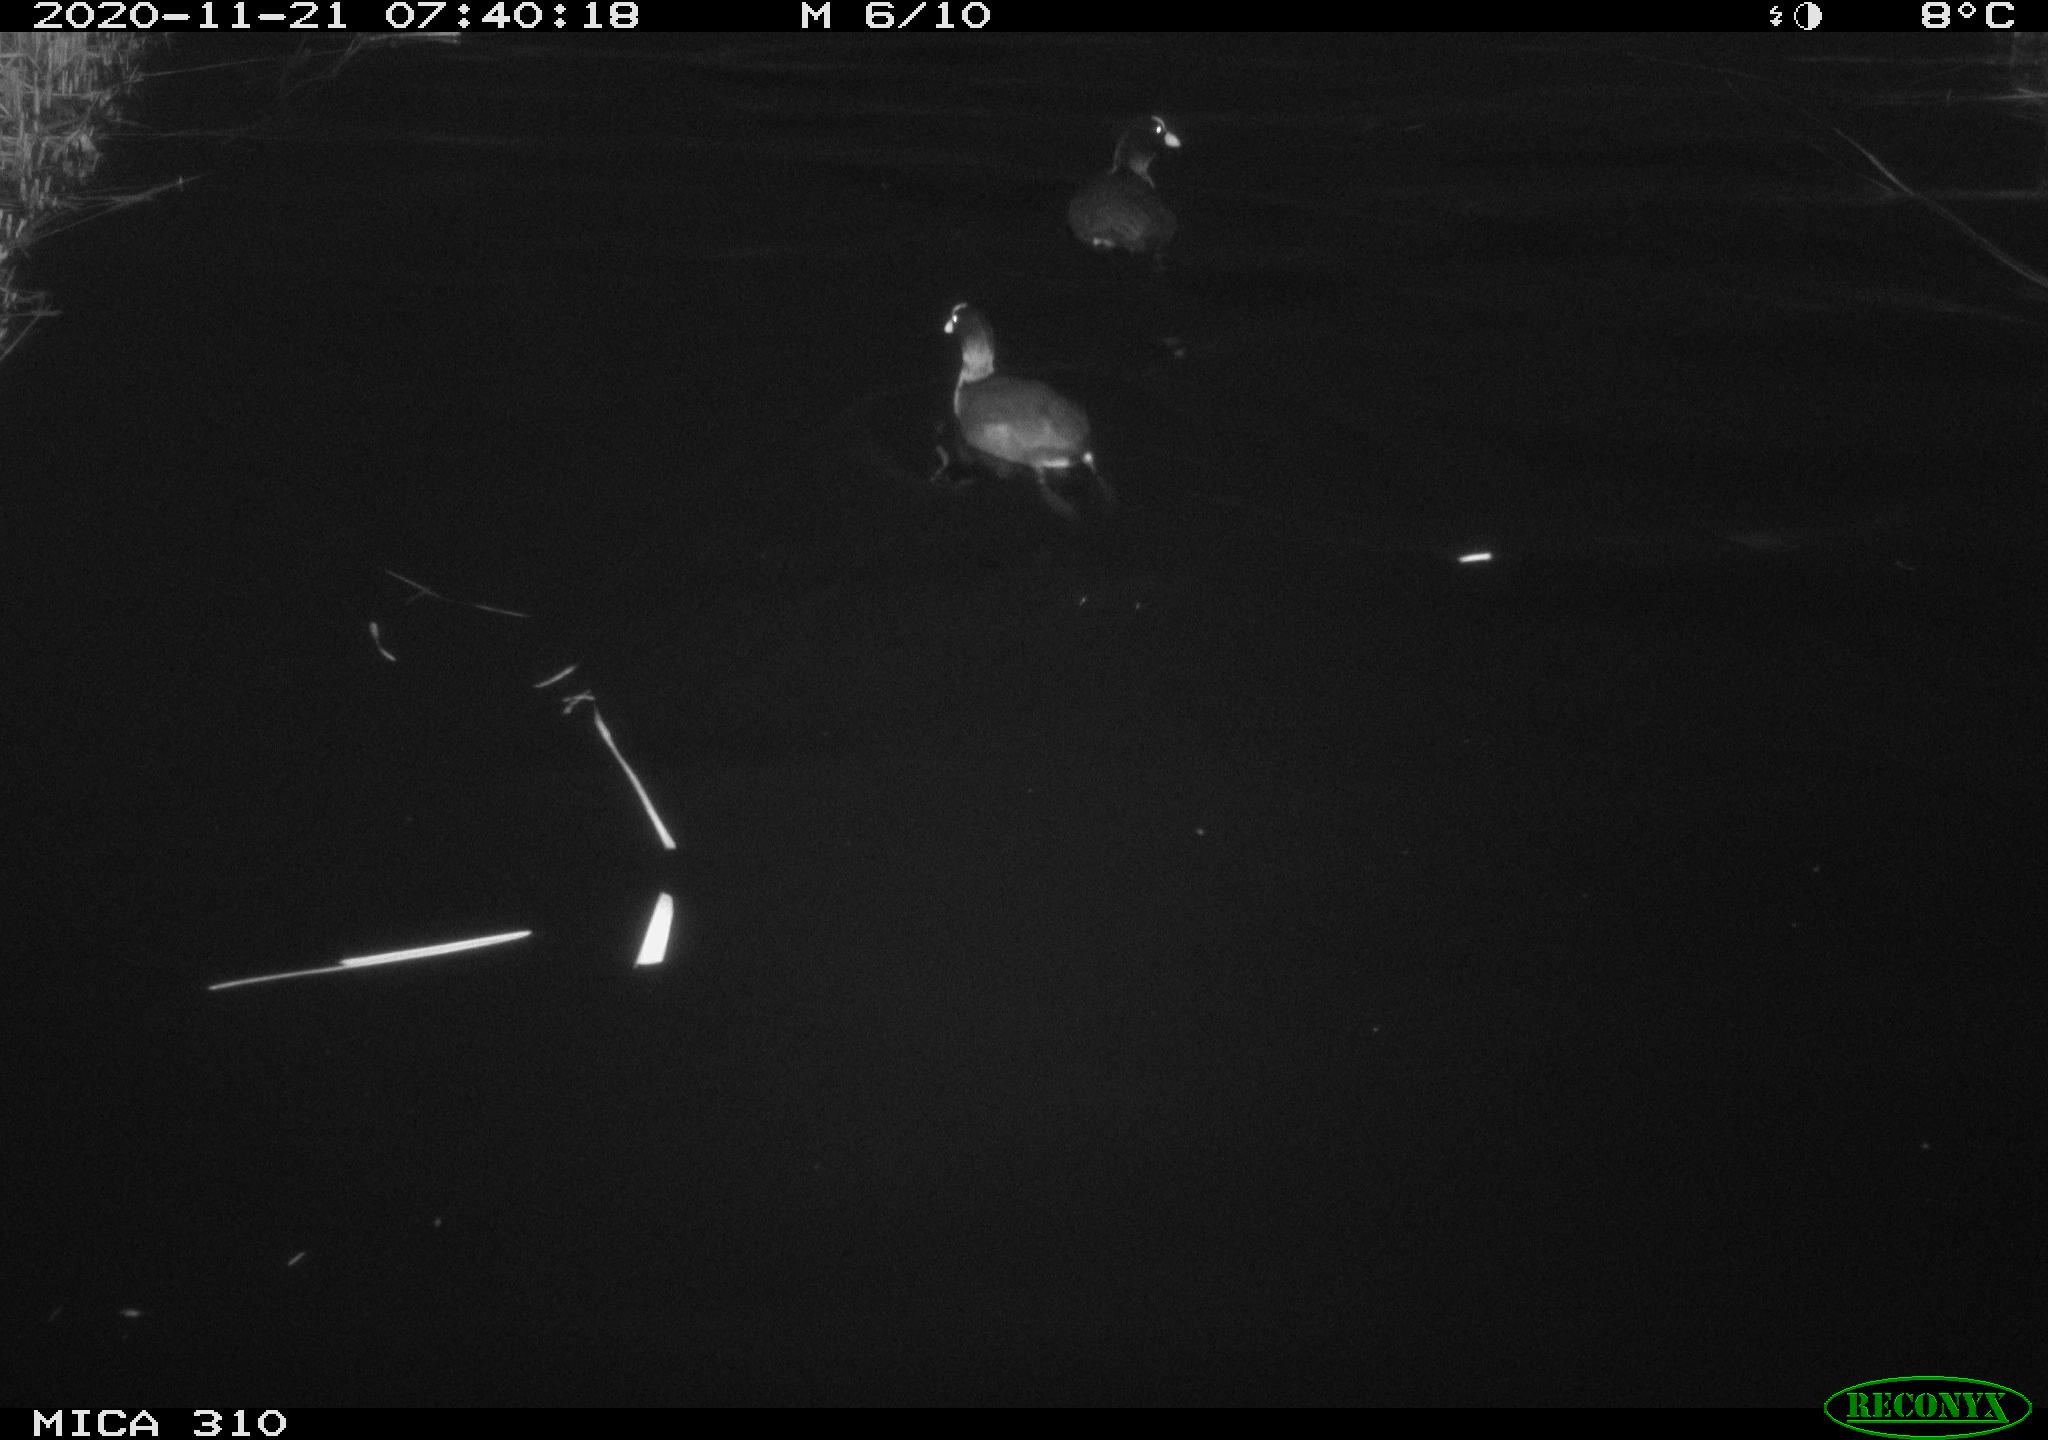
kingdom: Animalia
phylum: Chordata
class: Aves
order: Gruiformes
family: Rallidae
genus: Fulica
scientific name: Fulica atra
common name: Eurasian coot
